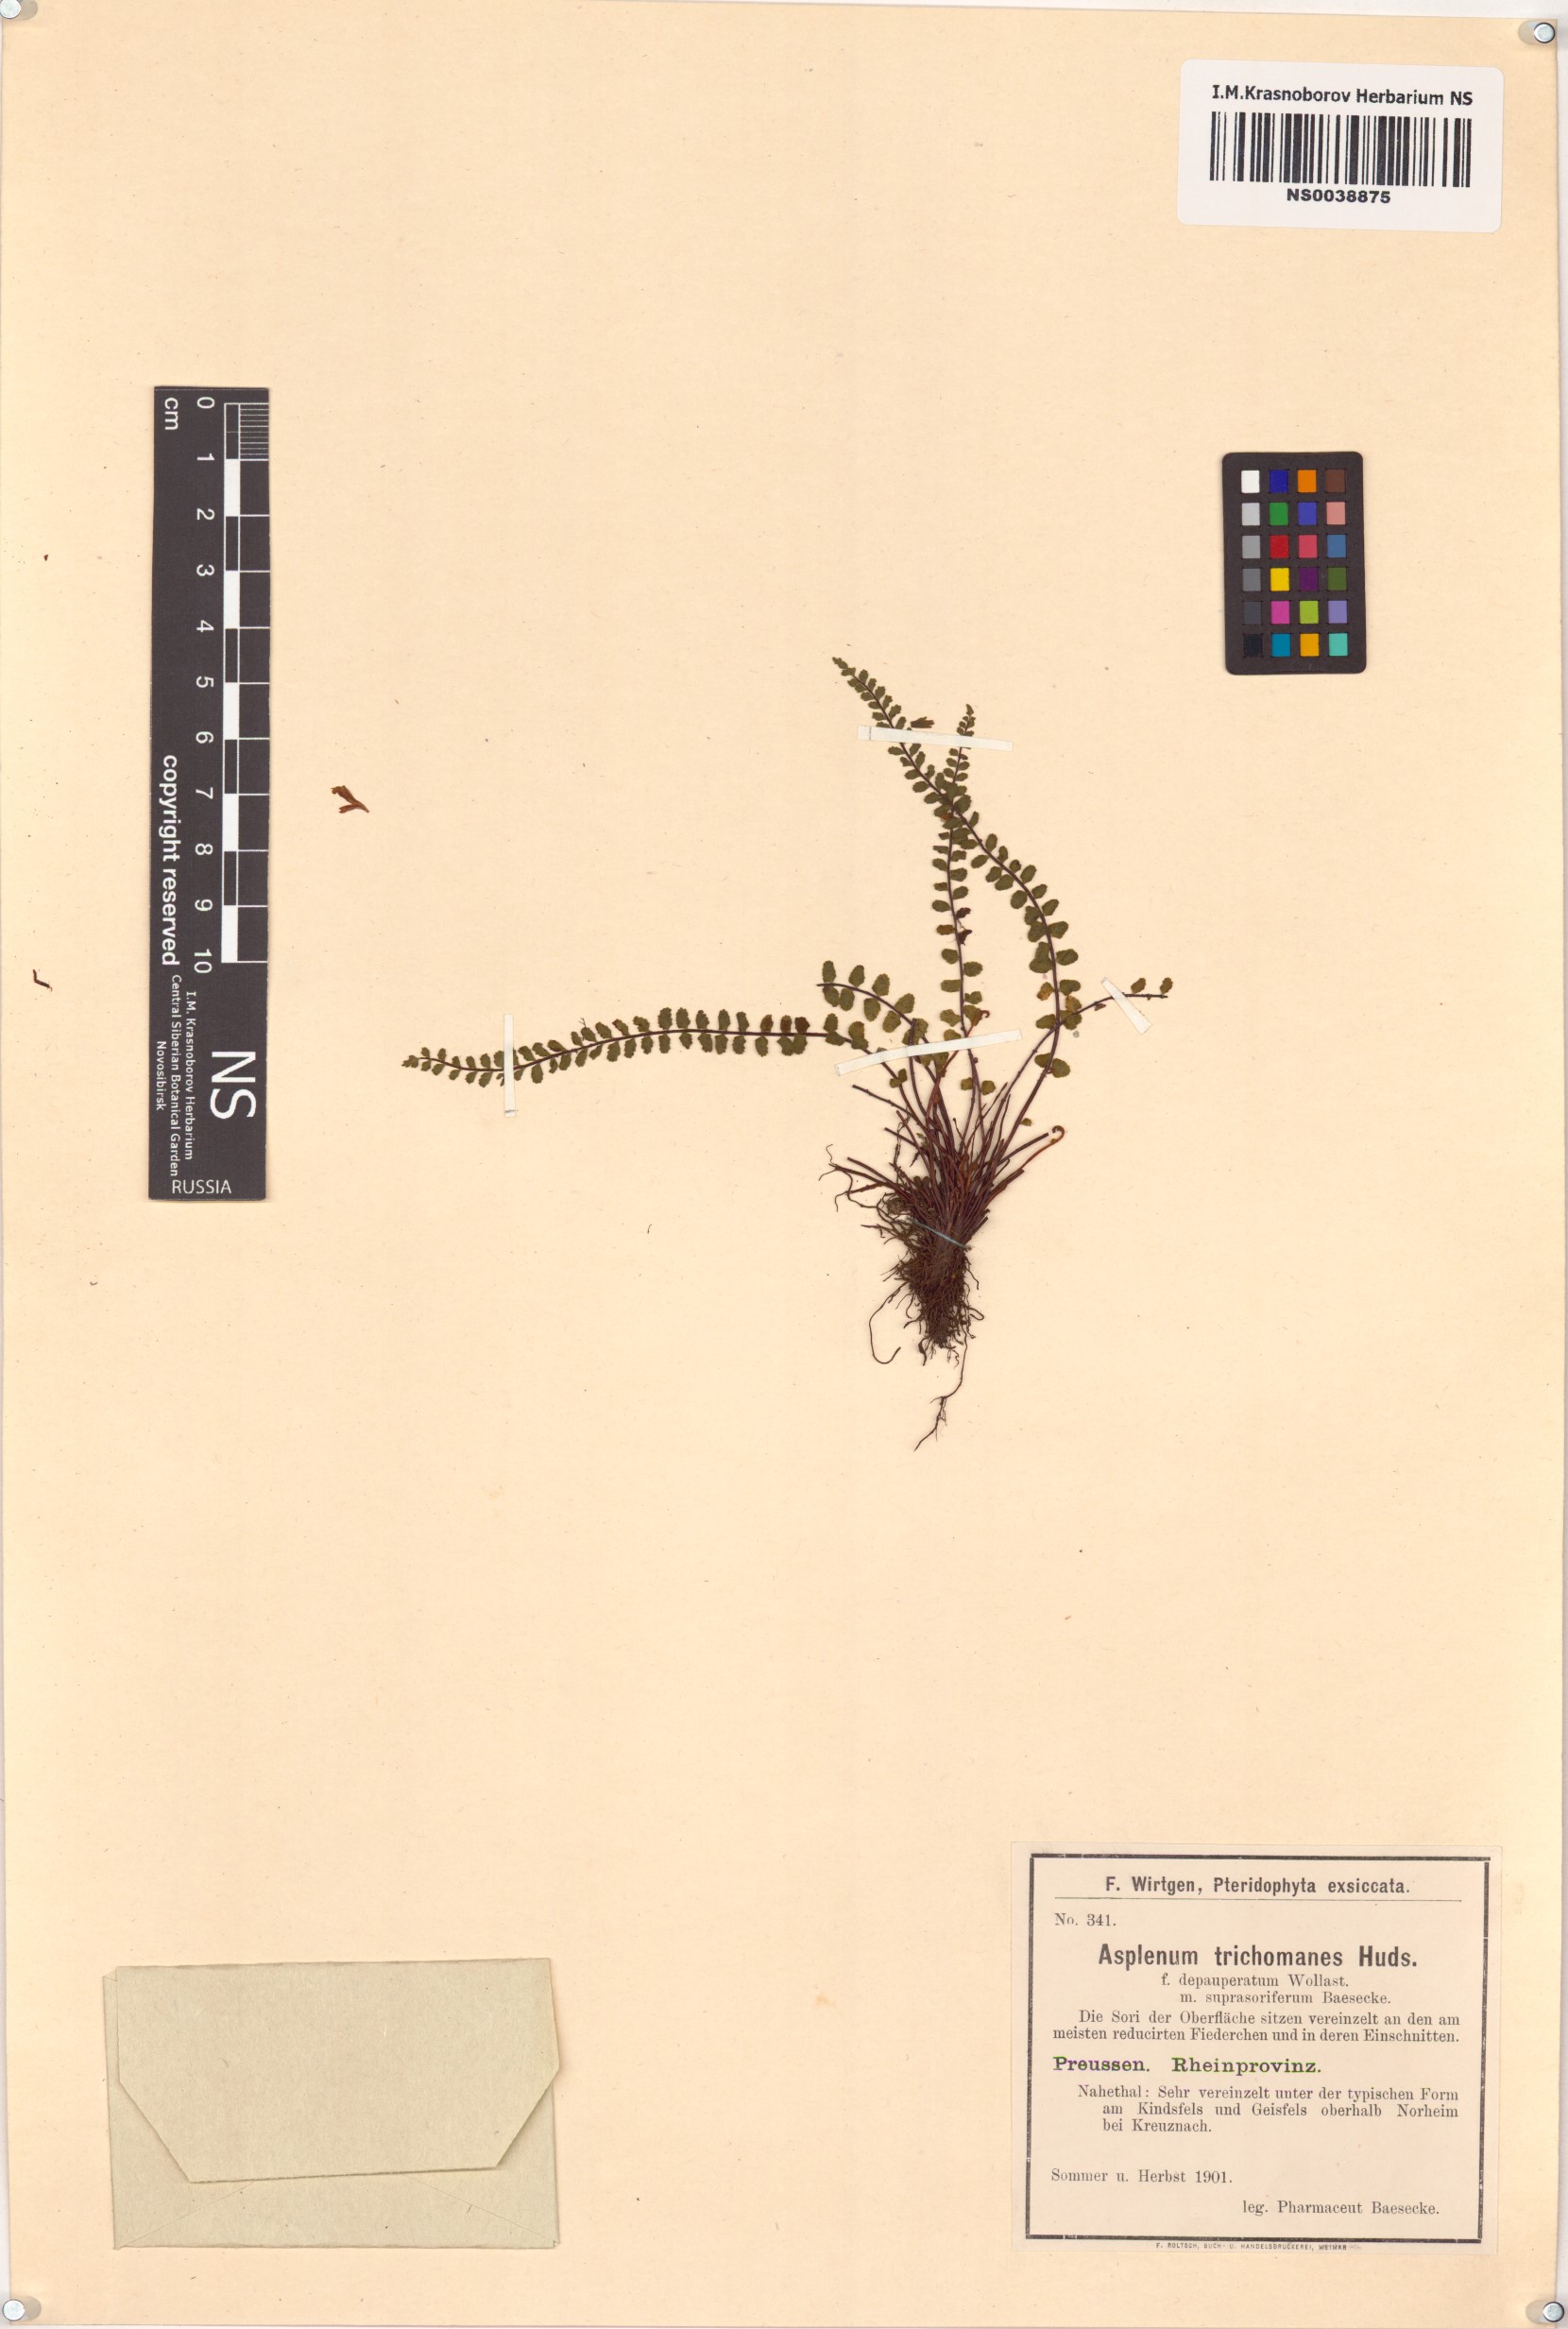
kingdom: Plantae
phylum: Tracheophyta
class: Polypodiopsida
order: Polypodiales
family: Aspleniaceae
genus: Asplenium
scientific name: Asplenium trichomanes
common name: Maidenhair spleenwort
